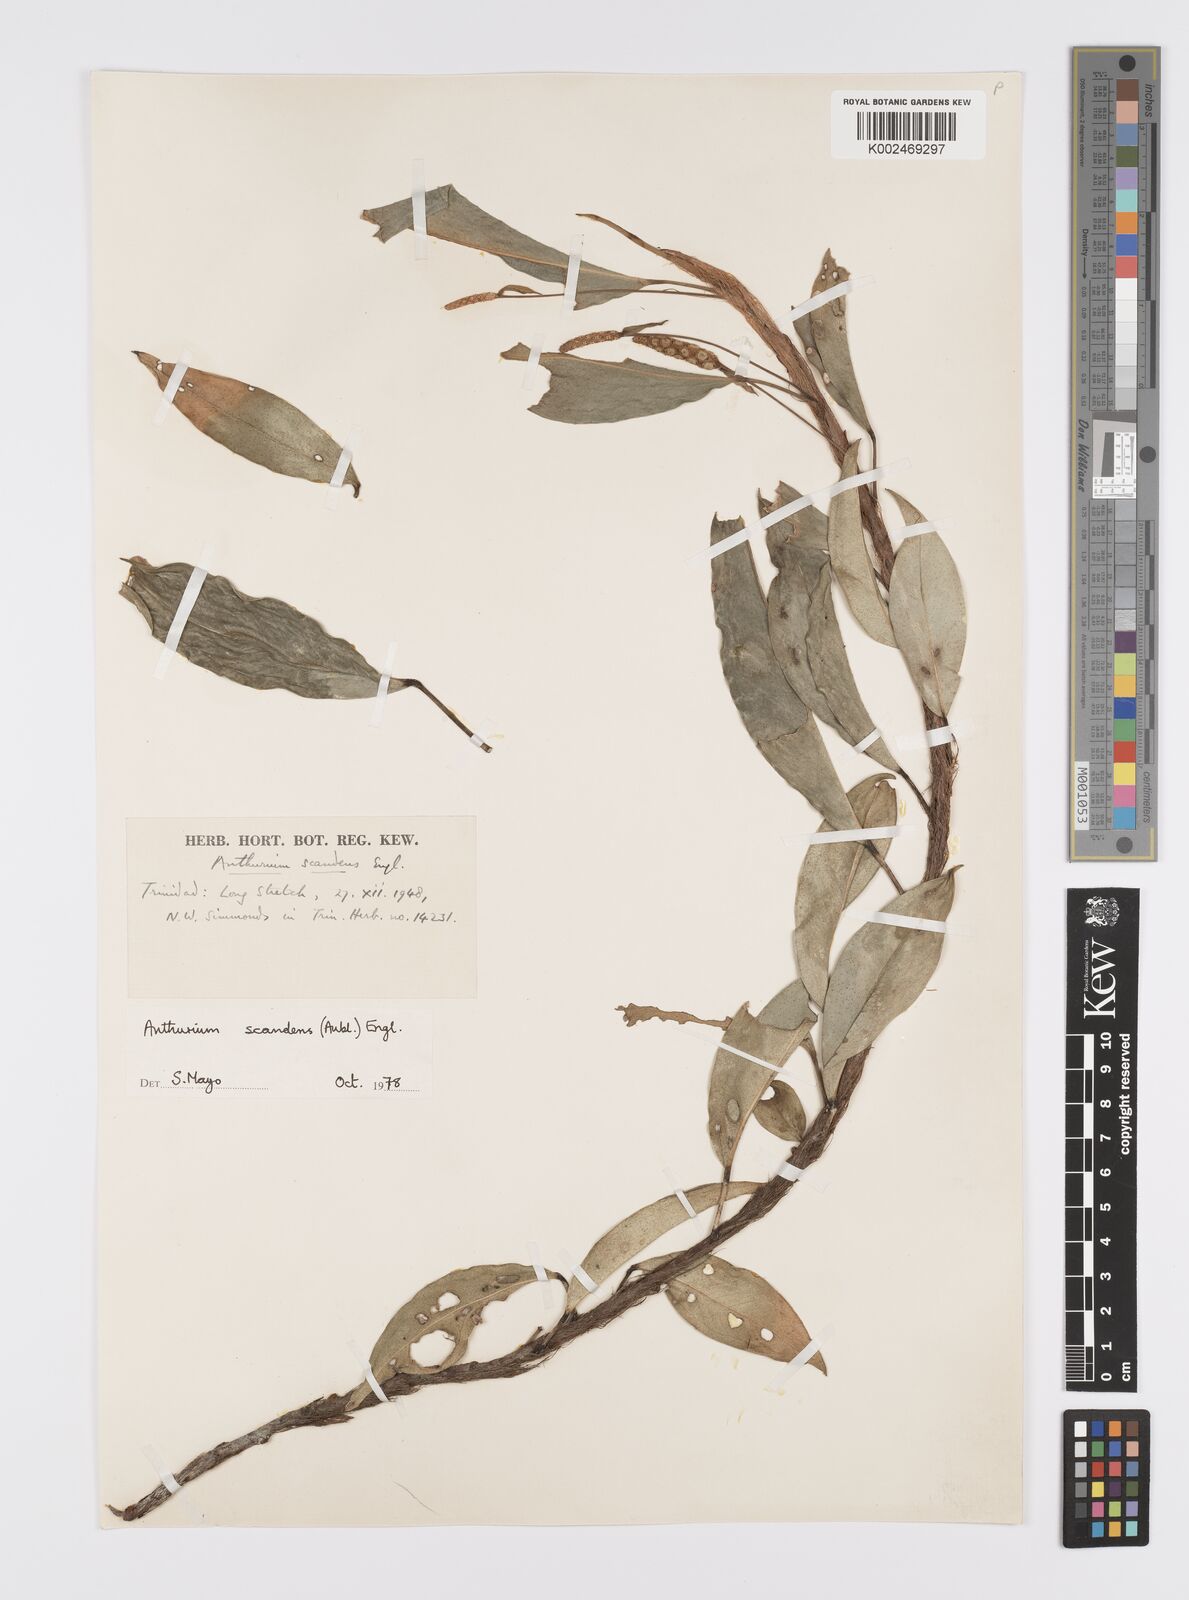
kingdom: Plantae
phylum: Tracheophyta
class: Liliopsida
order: Alismatales
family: Araceae
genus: Anthurium
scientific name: Anthurium scandens
